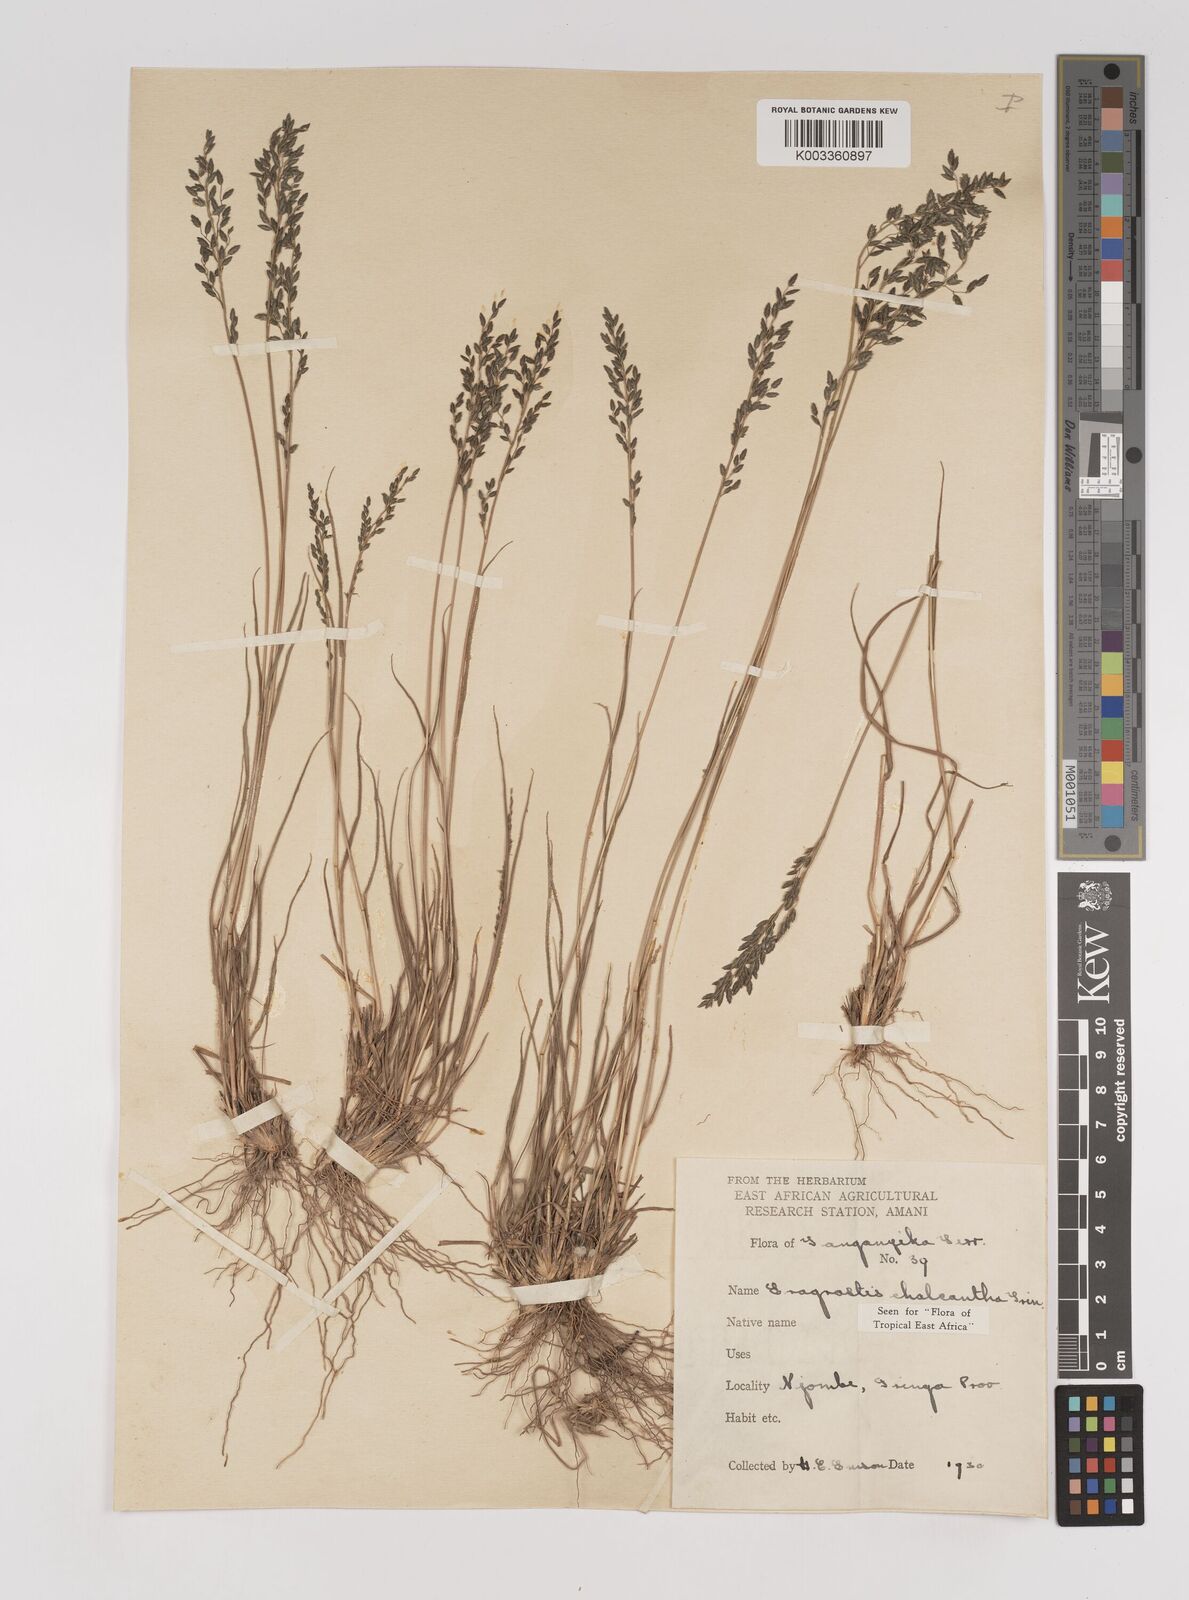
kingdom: Plantae
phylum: Tracheophyta
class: Liliopsida
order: Poales
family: Poaceae
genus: Eragrostis
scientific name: Eragrostis racemosa
